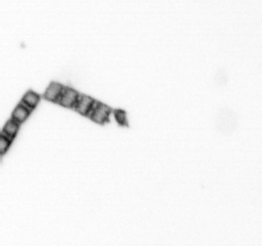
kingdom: Chromista
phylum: Ochrophyta
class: Bacillariophyceae
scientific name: Bacillariophyceae
